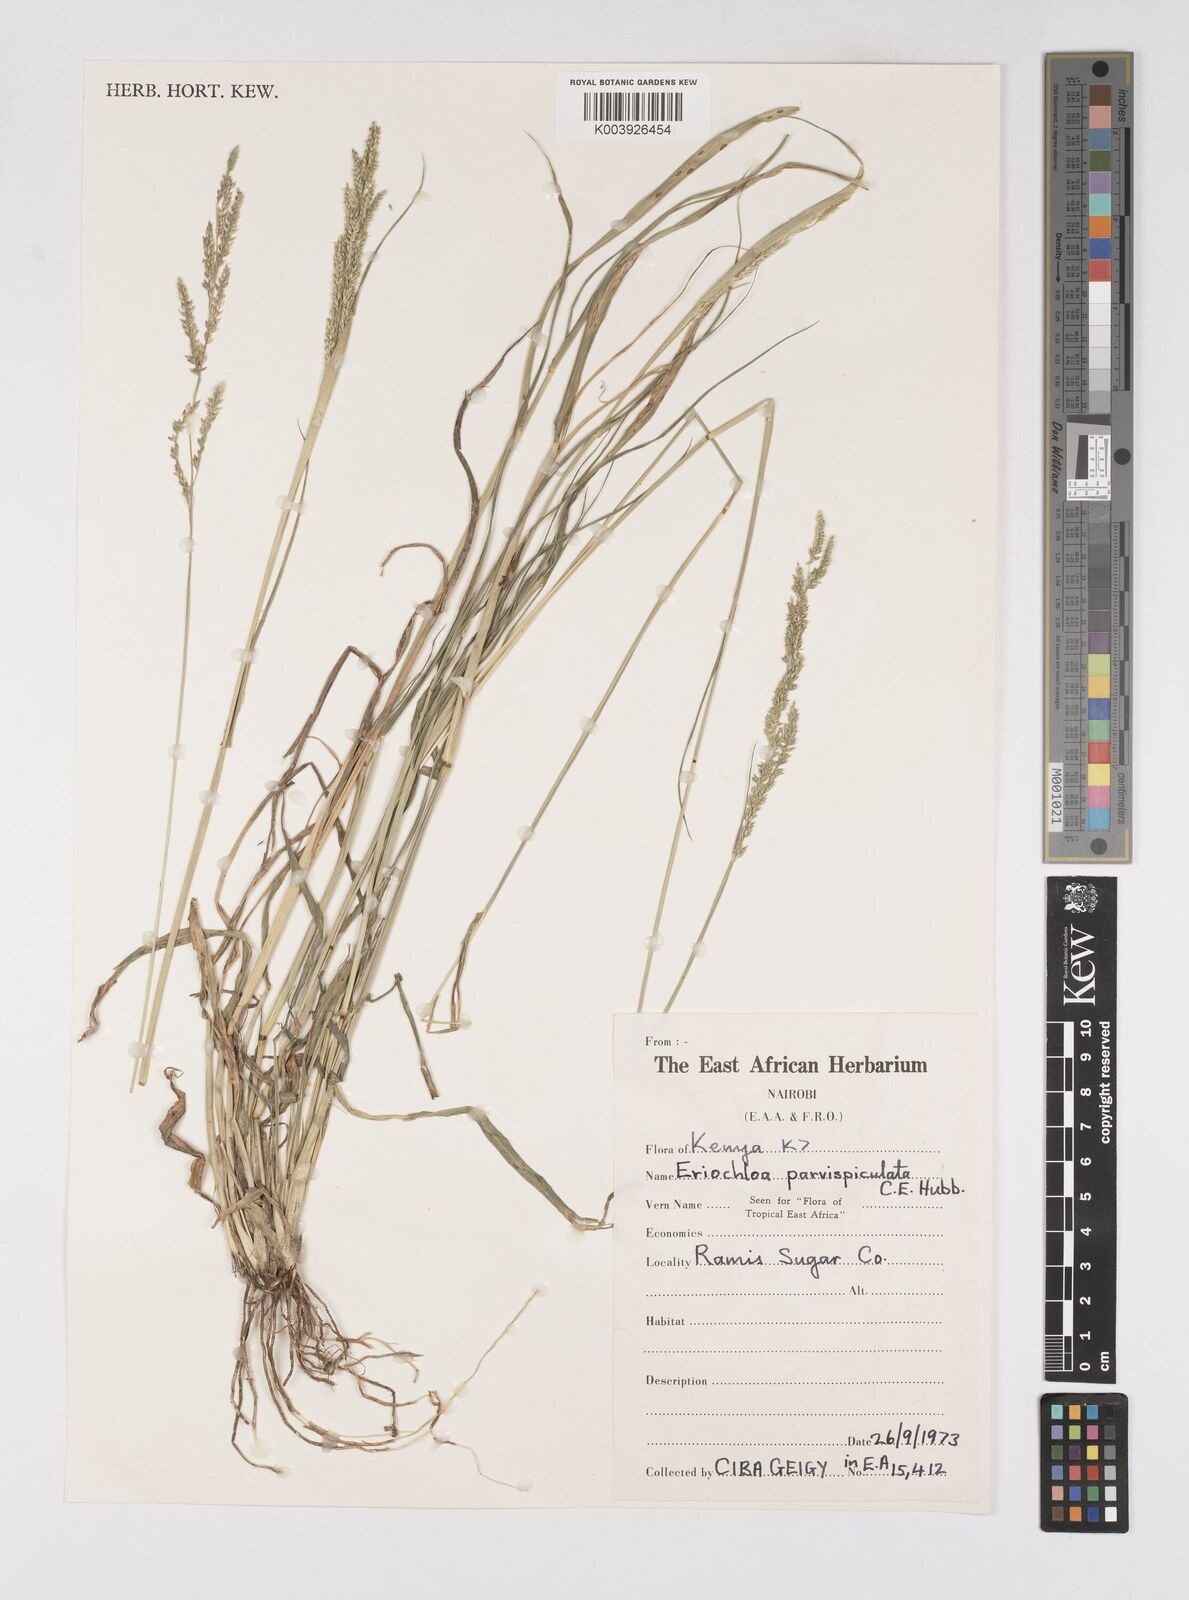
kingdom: Plantae
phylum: Tracheophyta
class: Liliopsida
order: Poales
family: Poaceae
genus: Eriochloa
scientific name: Eriochloa parvispiculata
